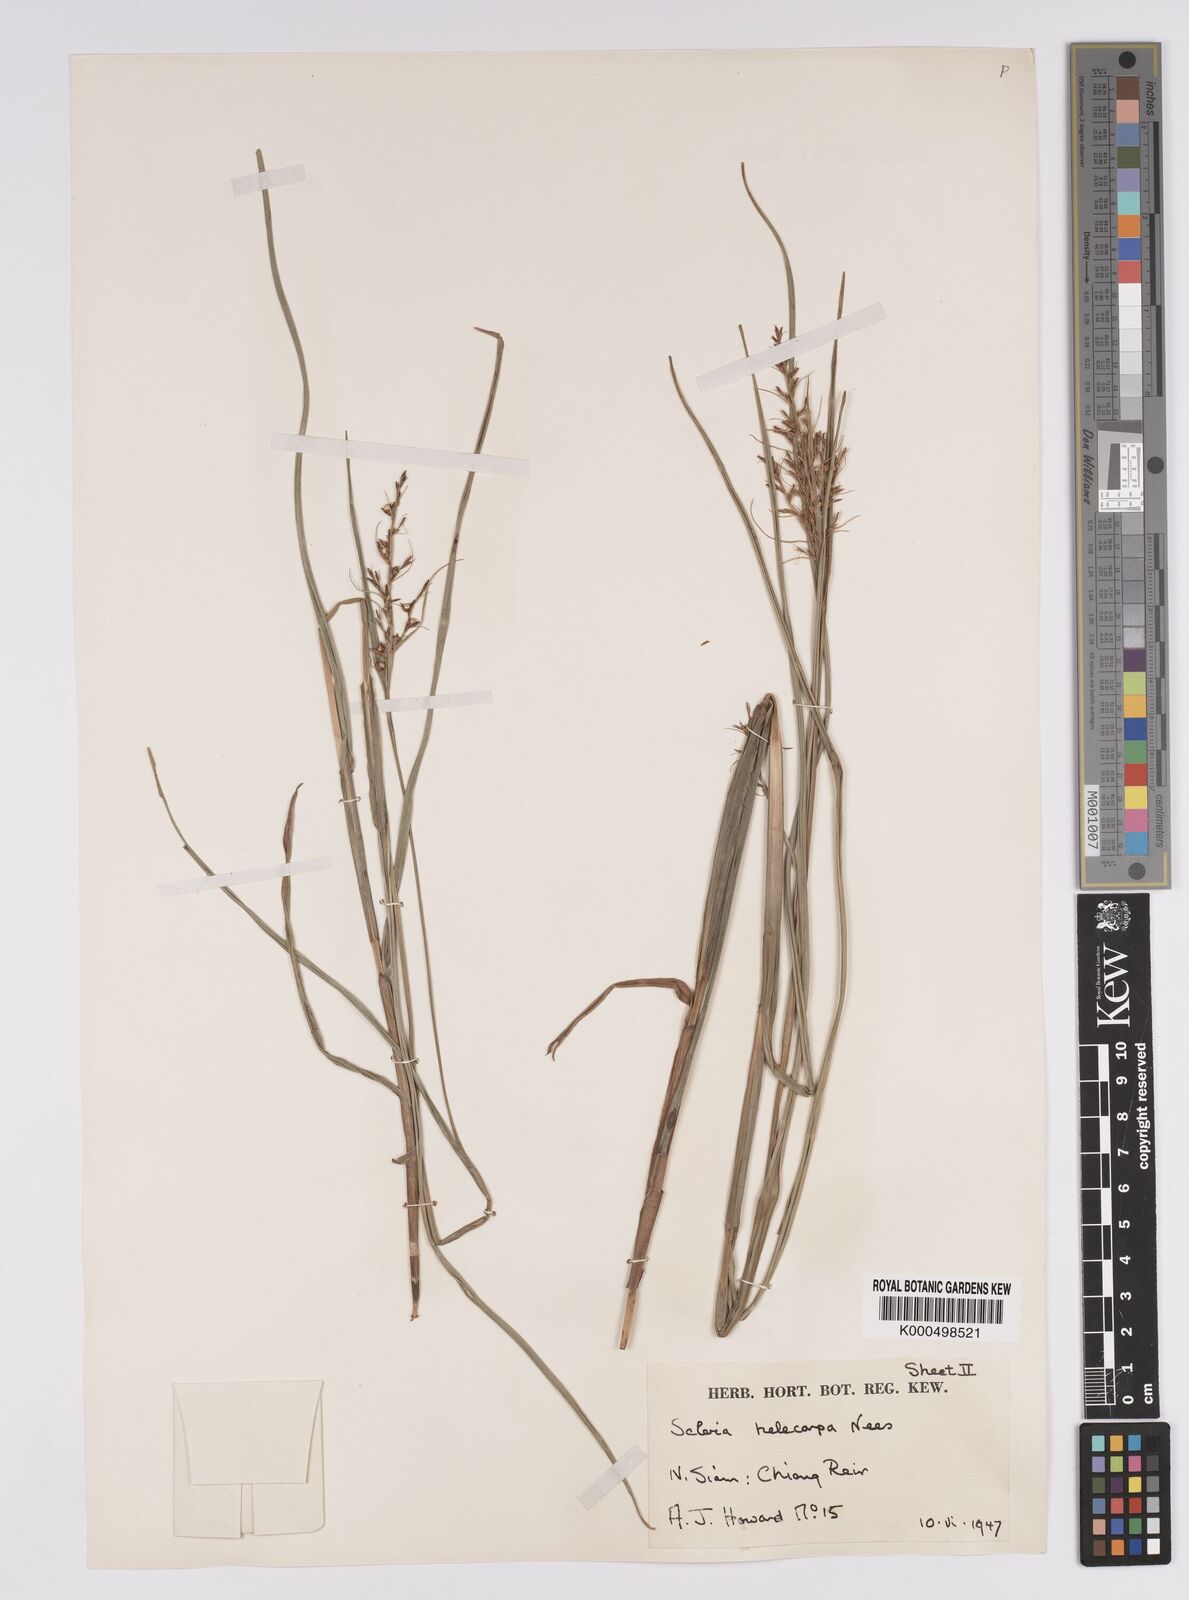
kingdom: Plantae
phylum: Tracheophyta
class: Liliopsida
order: Poales
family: Cyperaceae
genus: Scleria
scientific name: Scleria levis
